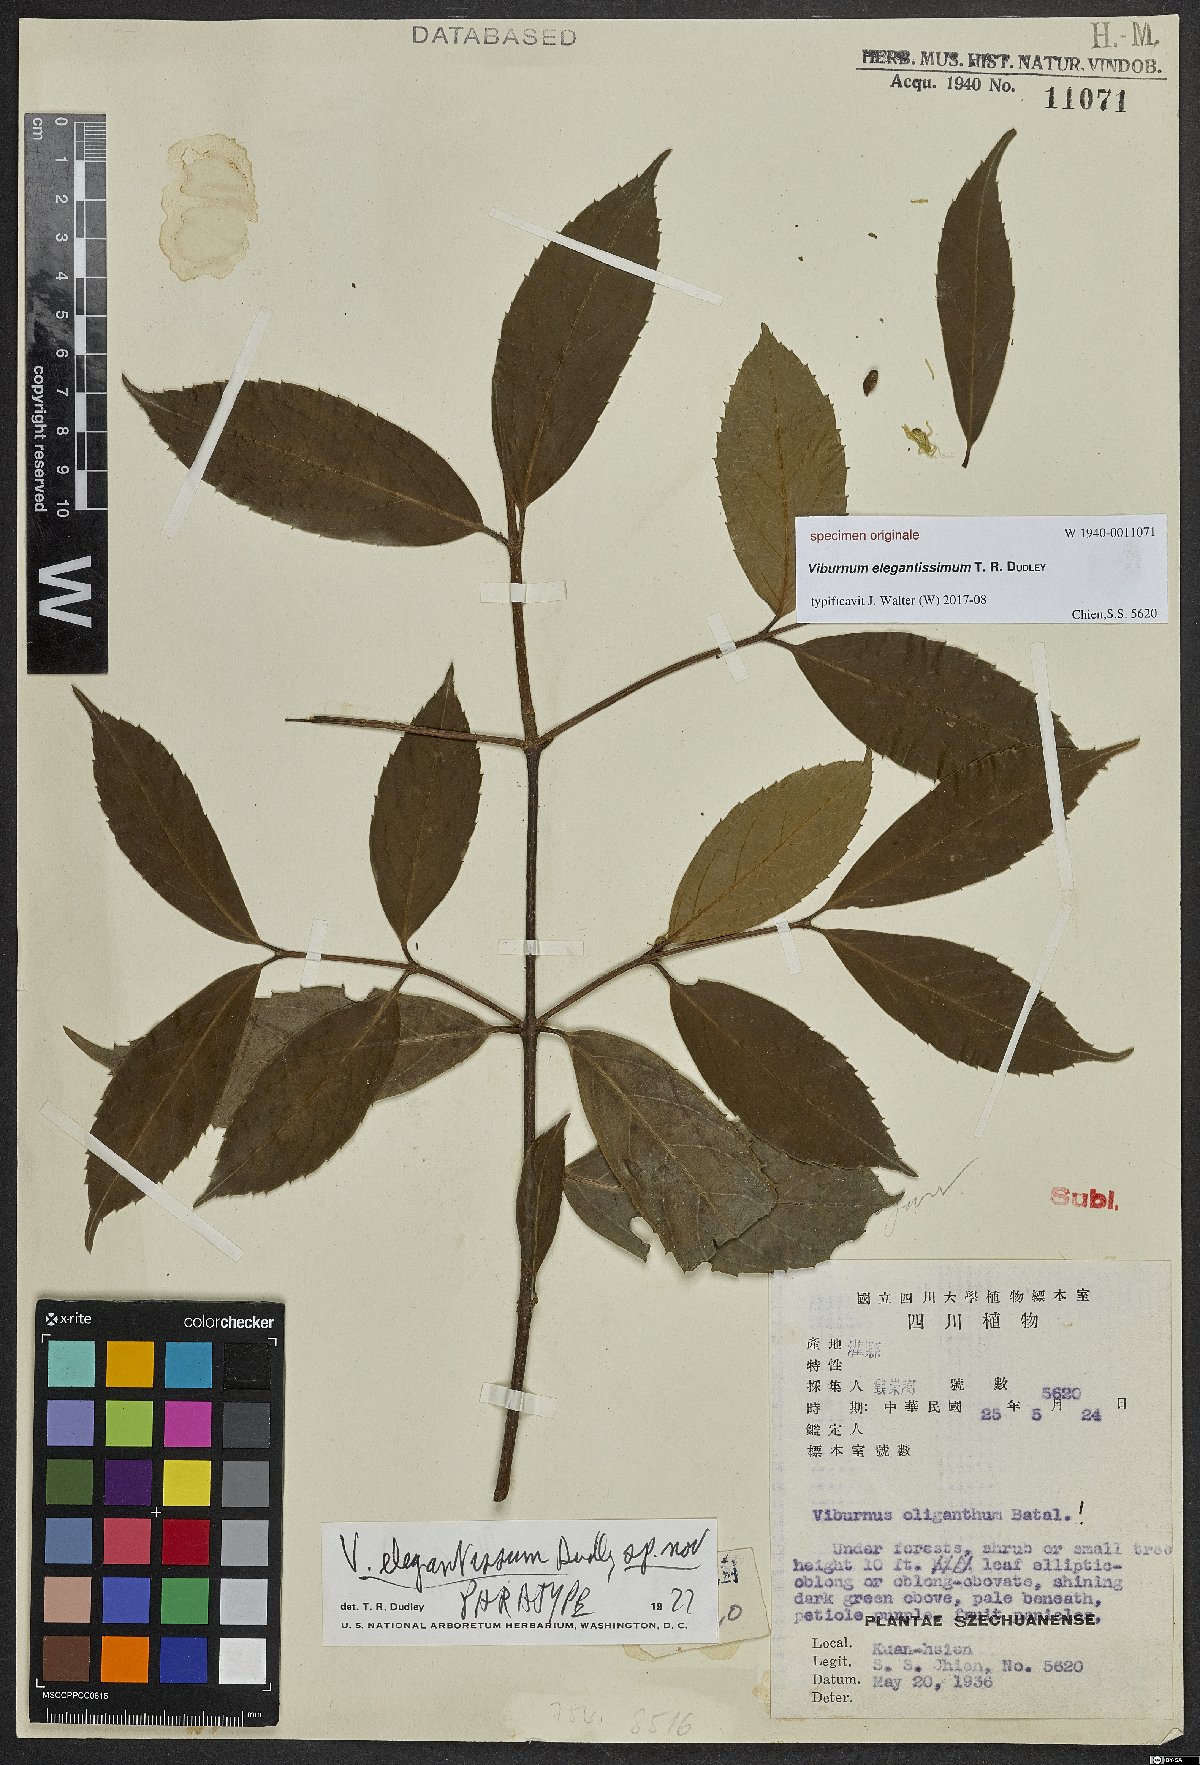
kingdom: Plantae
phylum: Tracheophyta
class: Magnoliopsida
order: Dipsacales
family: Viburnaceae
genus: Viburnum
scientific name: Viburnum
